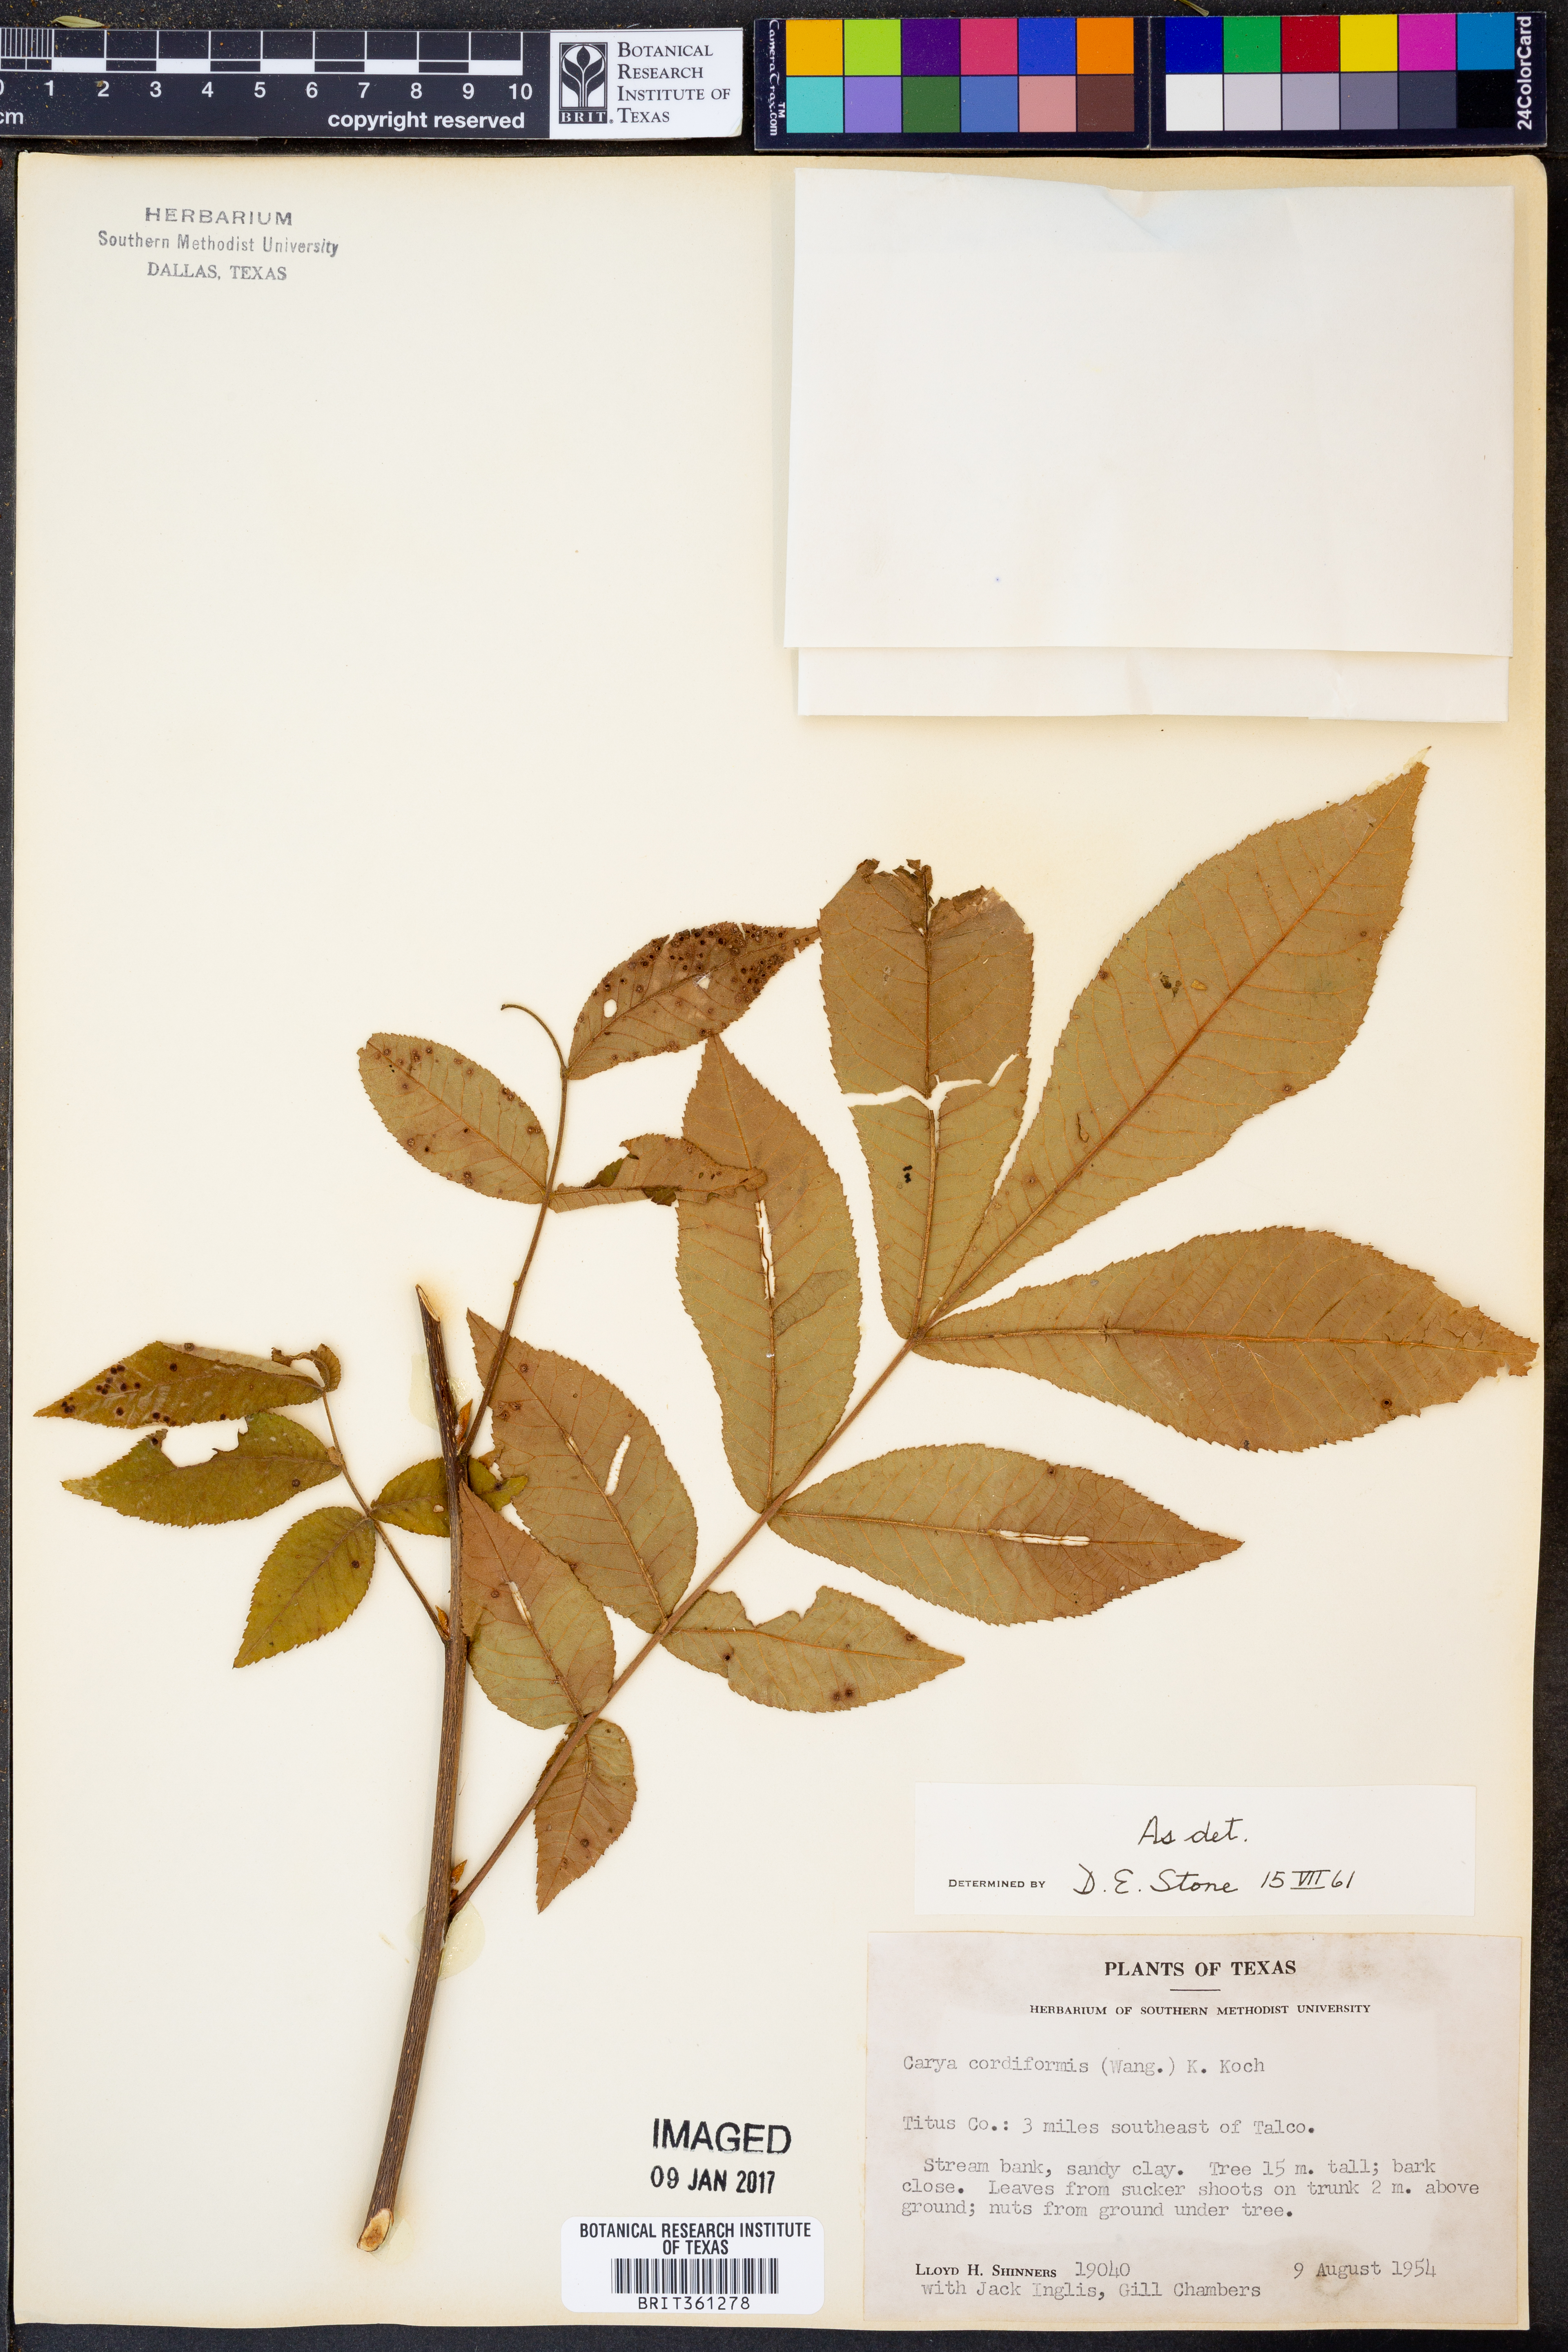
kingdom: Plantae
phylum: Tracheophyta
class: Magnoliopsida
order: Fagales
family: Juglandaceae
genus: Carya
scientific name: Carya cordiformis
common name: Bitternut hickory
